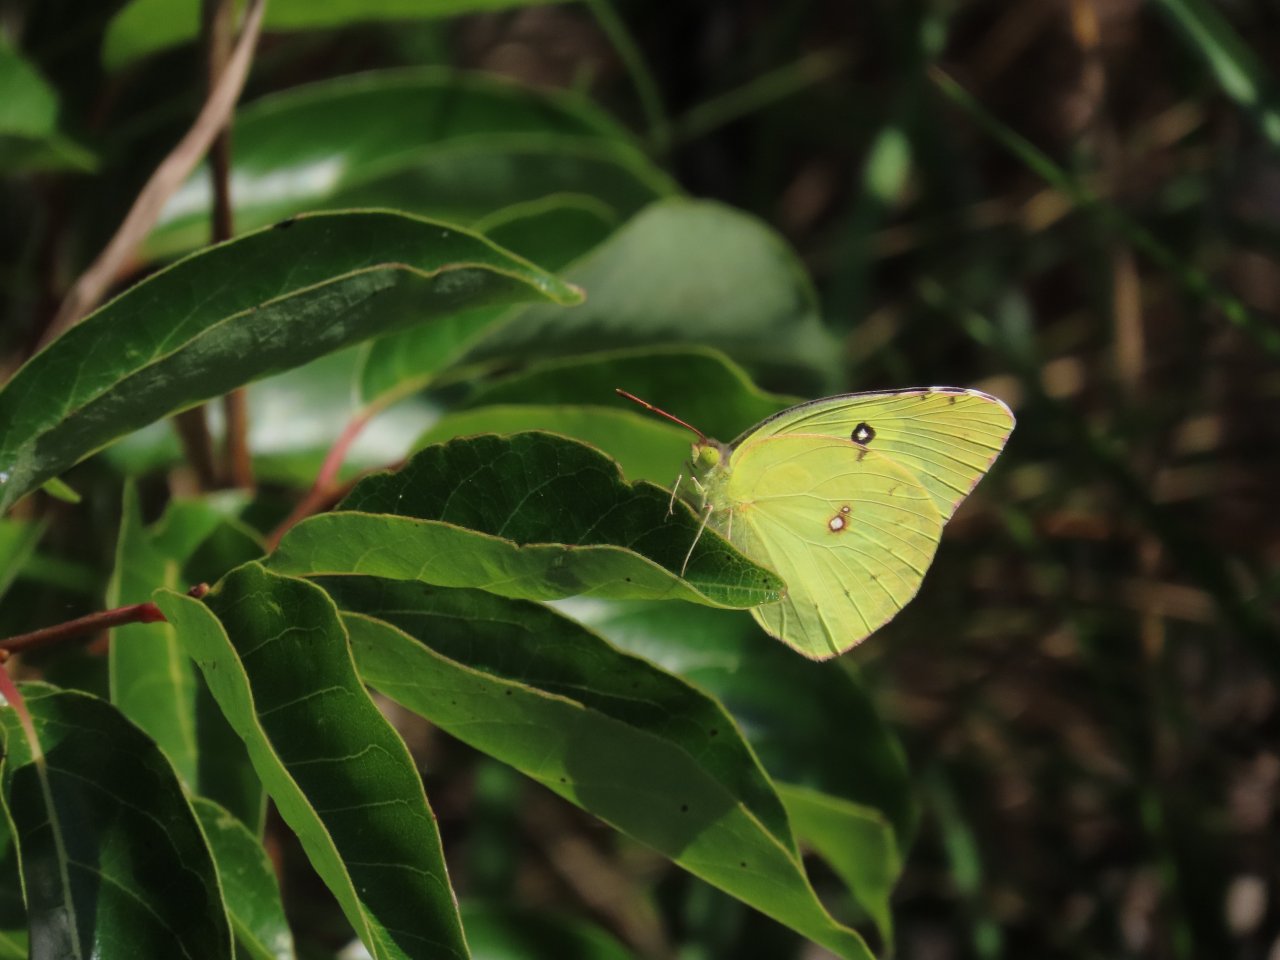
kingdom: Animalia
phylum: Arthropoda
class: Insecta
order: Lepidoptera
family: Pieridae
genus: Zerene
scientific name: Zerene cesonia
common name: Southern Dogface
